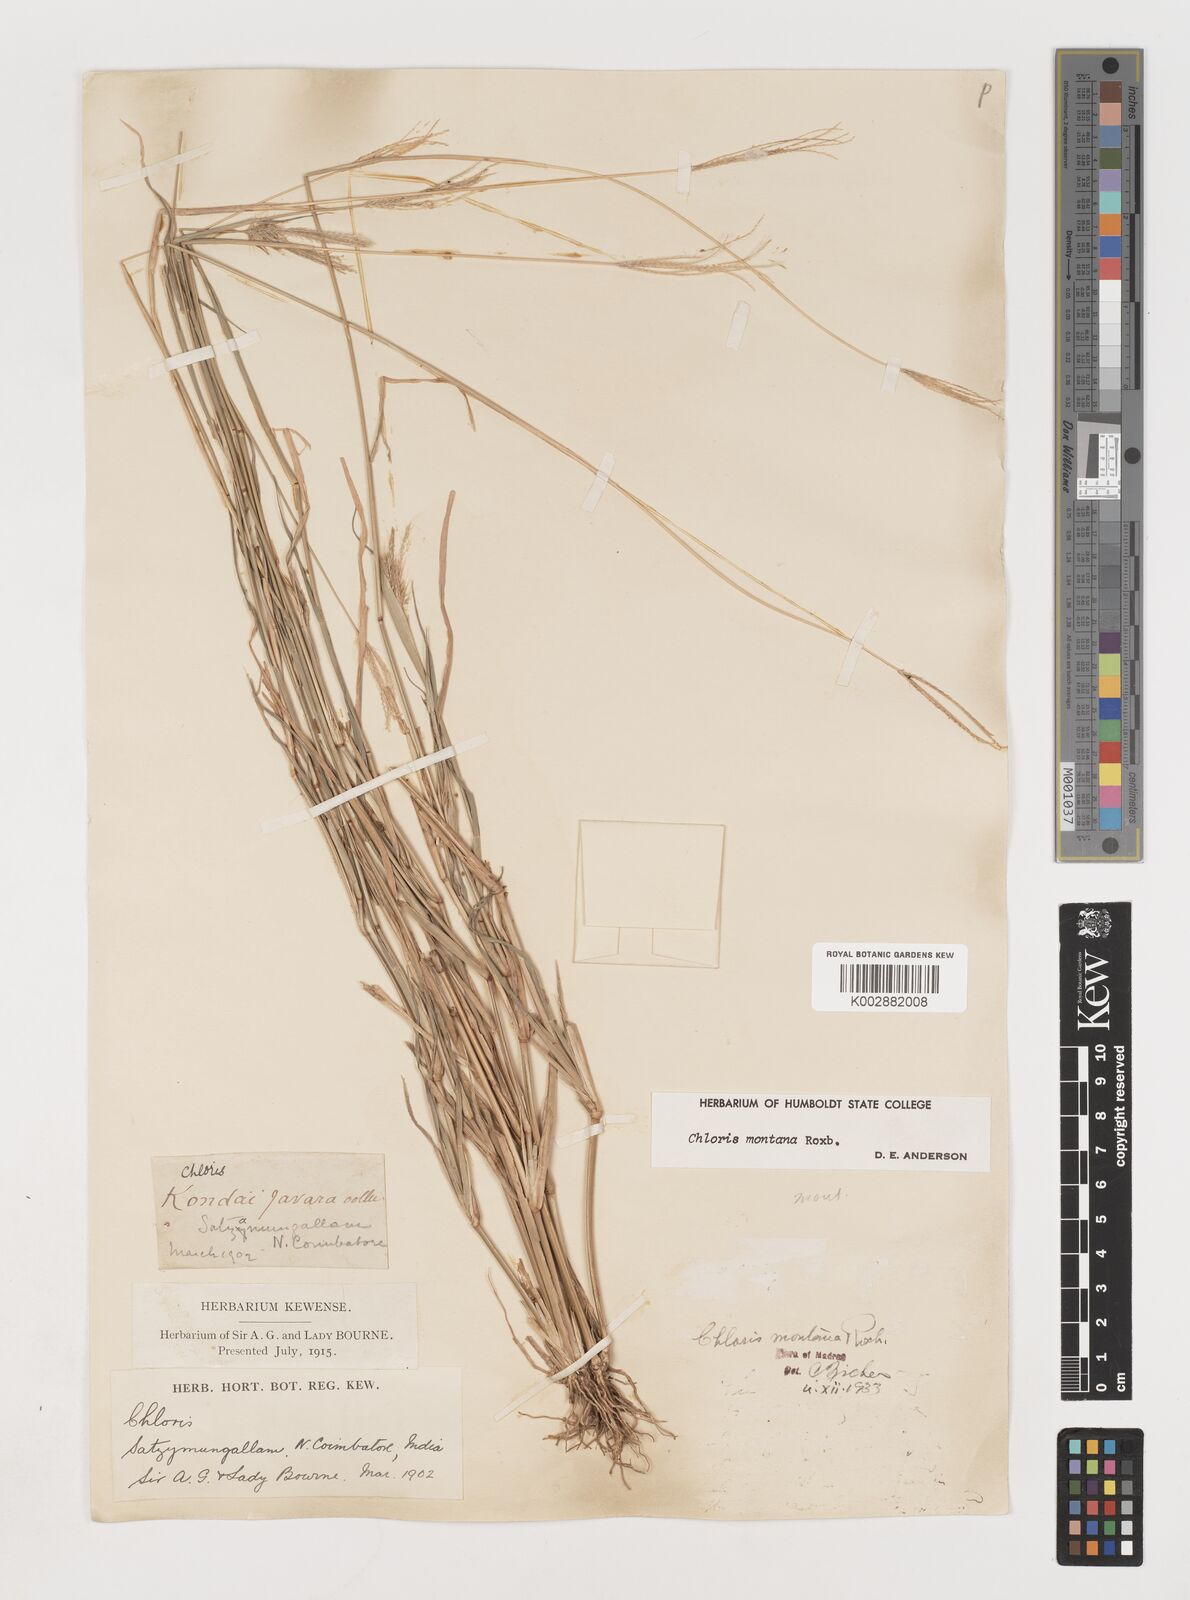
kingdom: Plantae
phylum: Tracheophyta
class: Liliopsida
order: Poales
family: Poaceae
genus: Chloris
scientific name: Chloris montana
